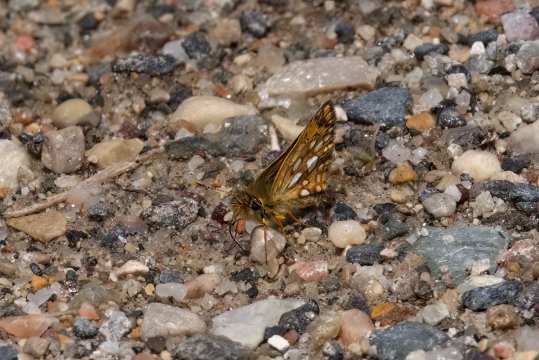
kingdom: Animalia
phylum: Arthropoda
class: Insecta
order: Lepidoptera
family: Hesperiidae
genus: Carterocephalus
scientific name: Carterocephalus mandan
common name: Arctic Skipperling
